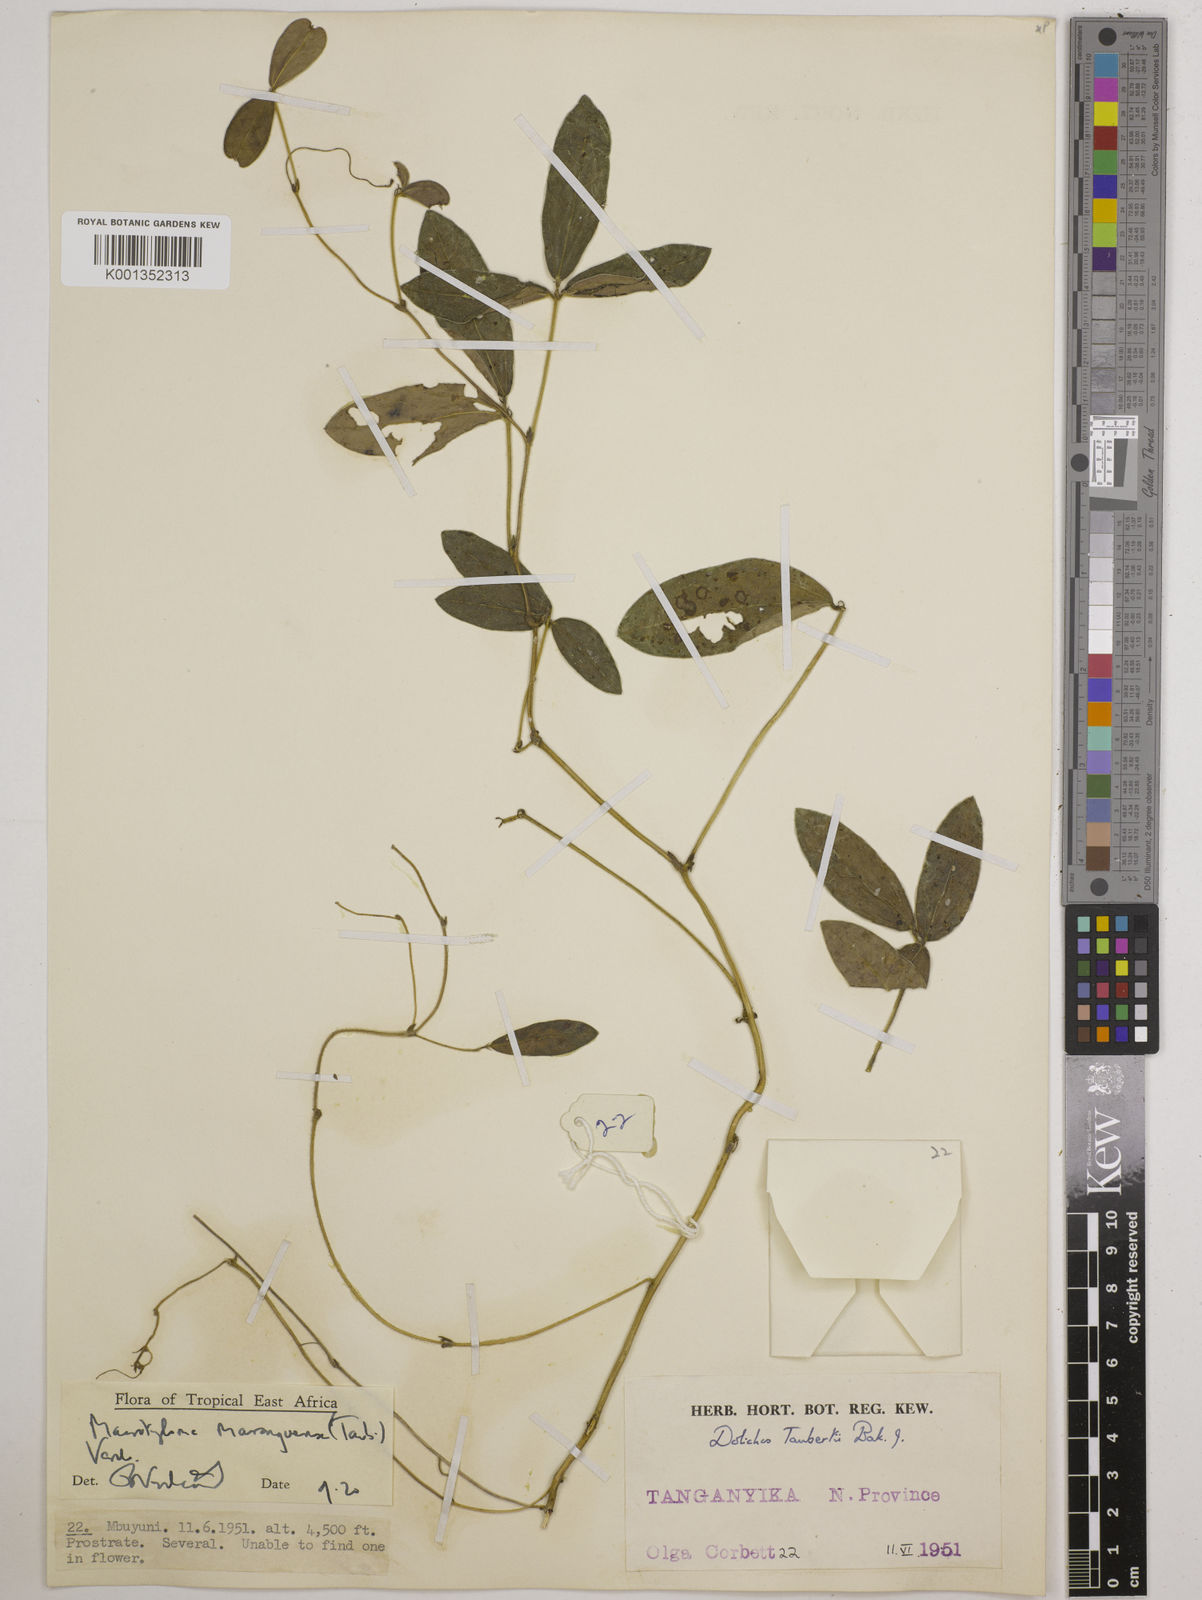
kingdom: Plantae
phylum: Tracheophyta
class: Magnoliopsida
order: Fabales
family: Fabaceae
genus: Macrotyloma
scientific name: Macrotyloma maranguense
